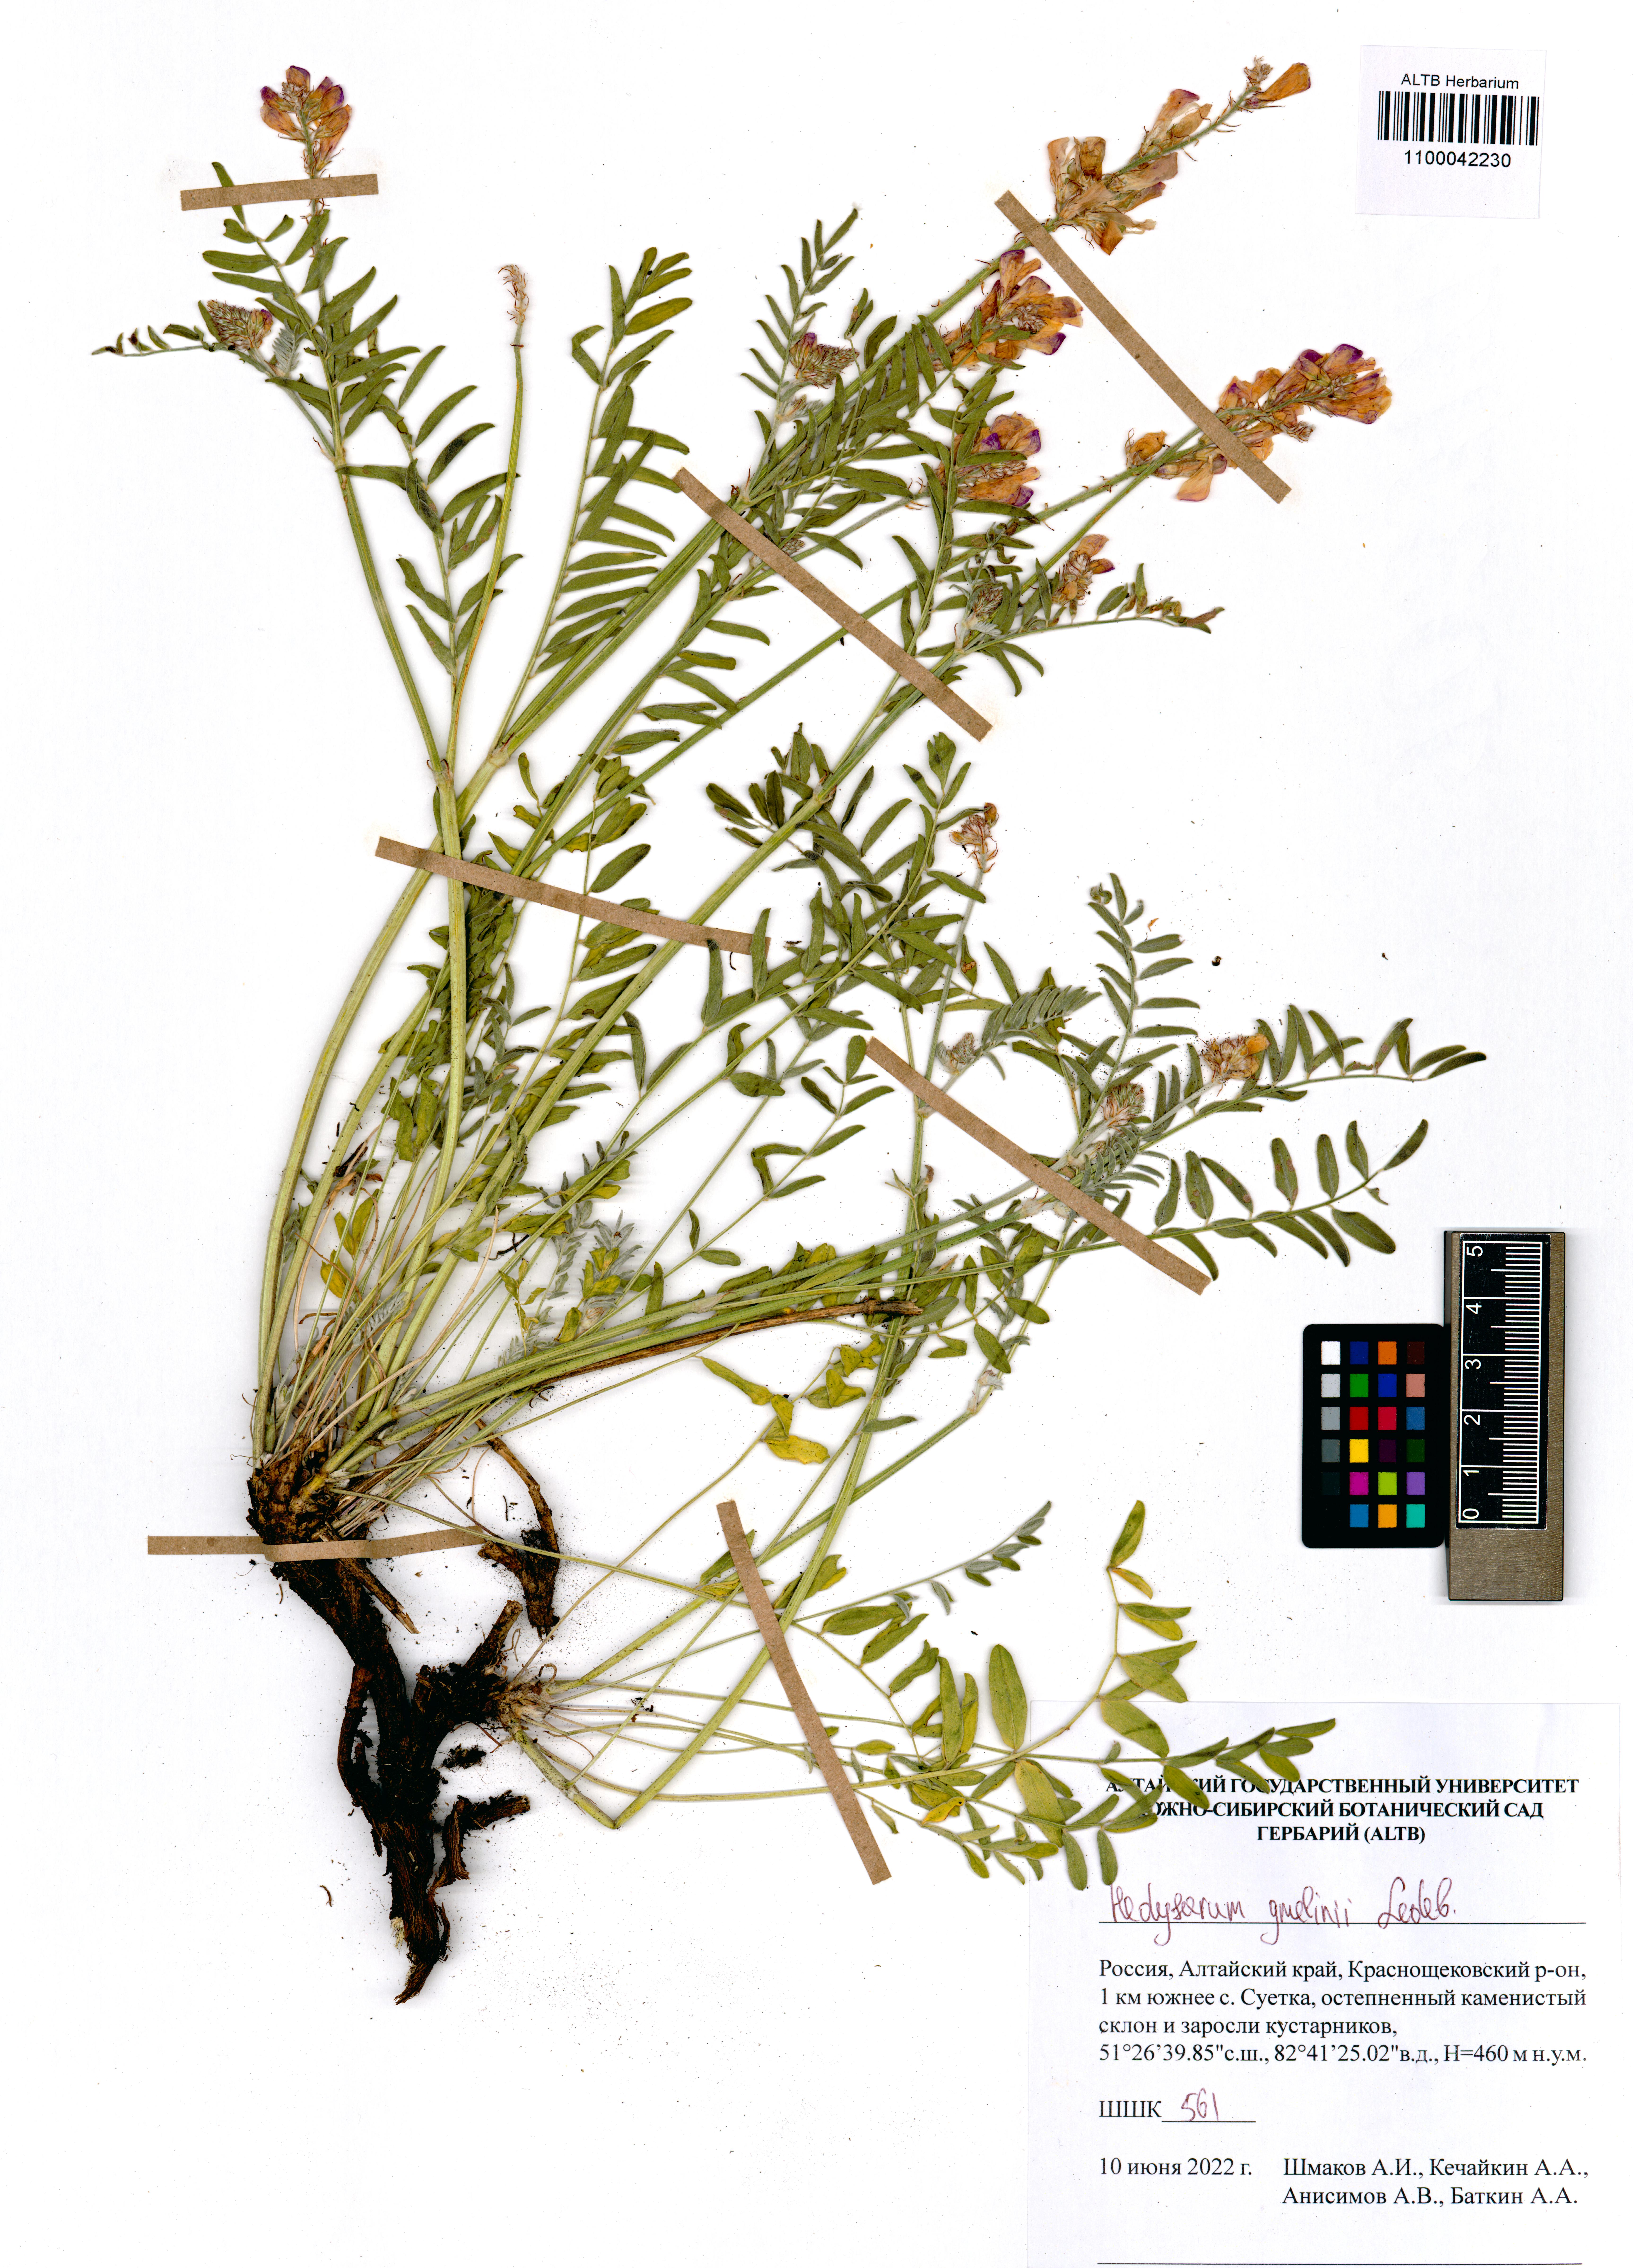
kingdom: Plantae
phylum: Tracheophyta
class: Magnoliopsida
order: Fabales
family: Fabaceae
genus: Hedysarum
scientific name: Hedysarum gmelinii
